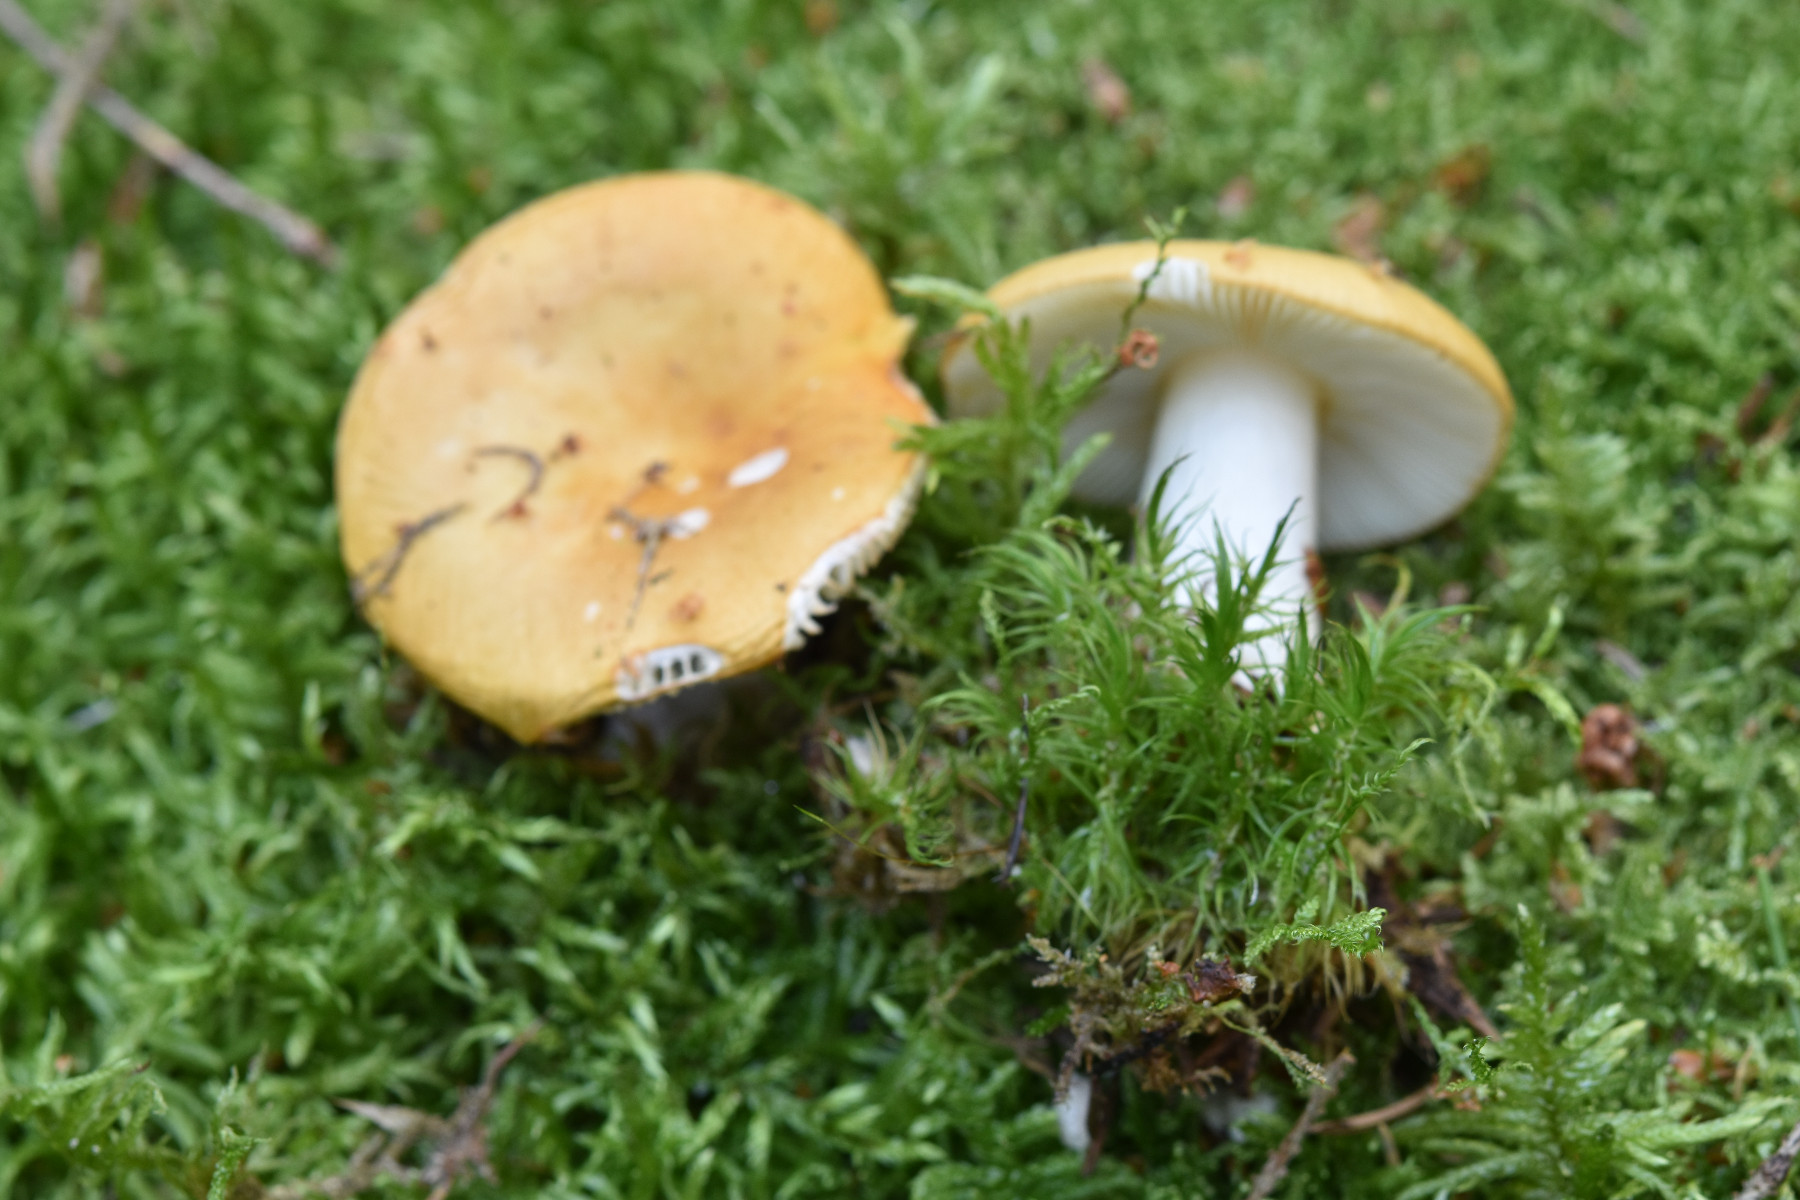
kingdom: Fungi
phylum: Basidiomycota
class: Agaricomycetes
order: Russulales
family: Russulaceae
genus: Russula
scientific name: Russula ochroleuca
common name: okkergul skørhat
